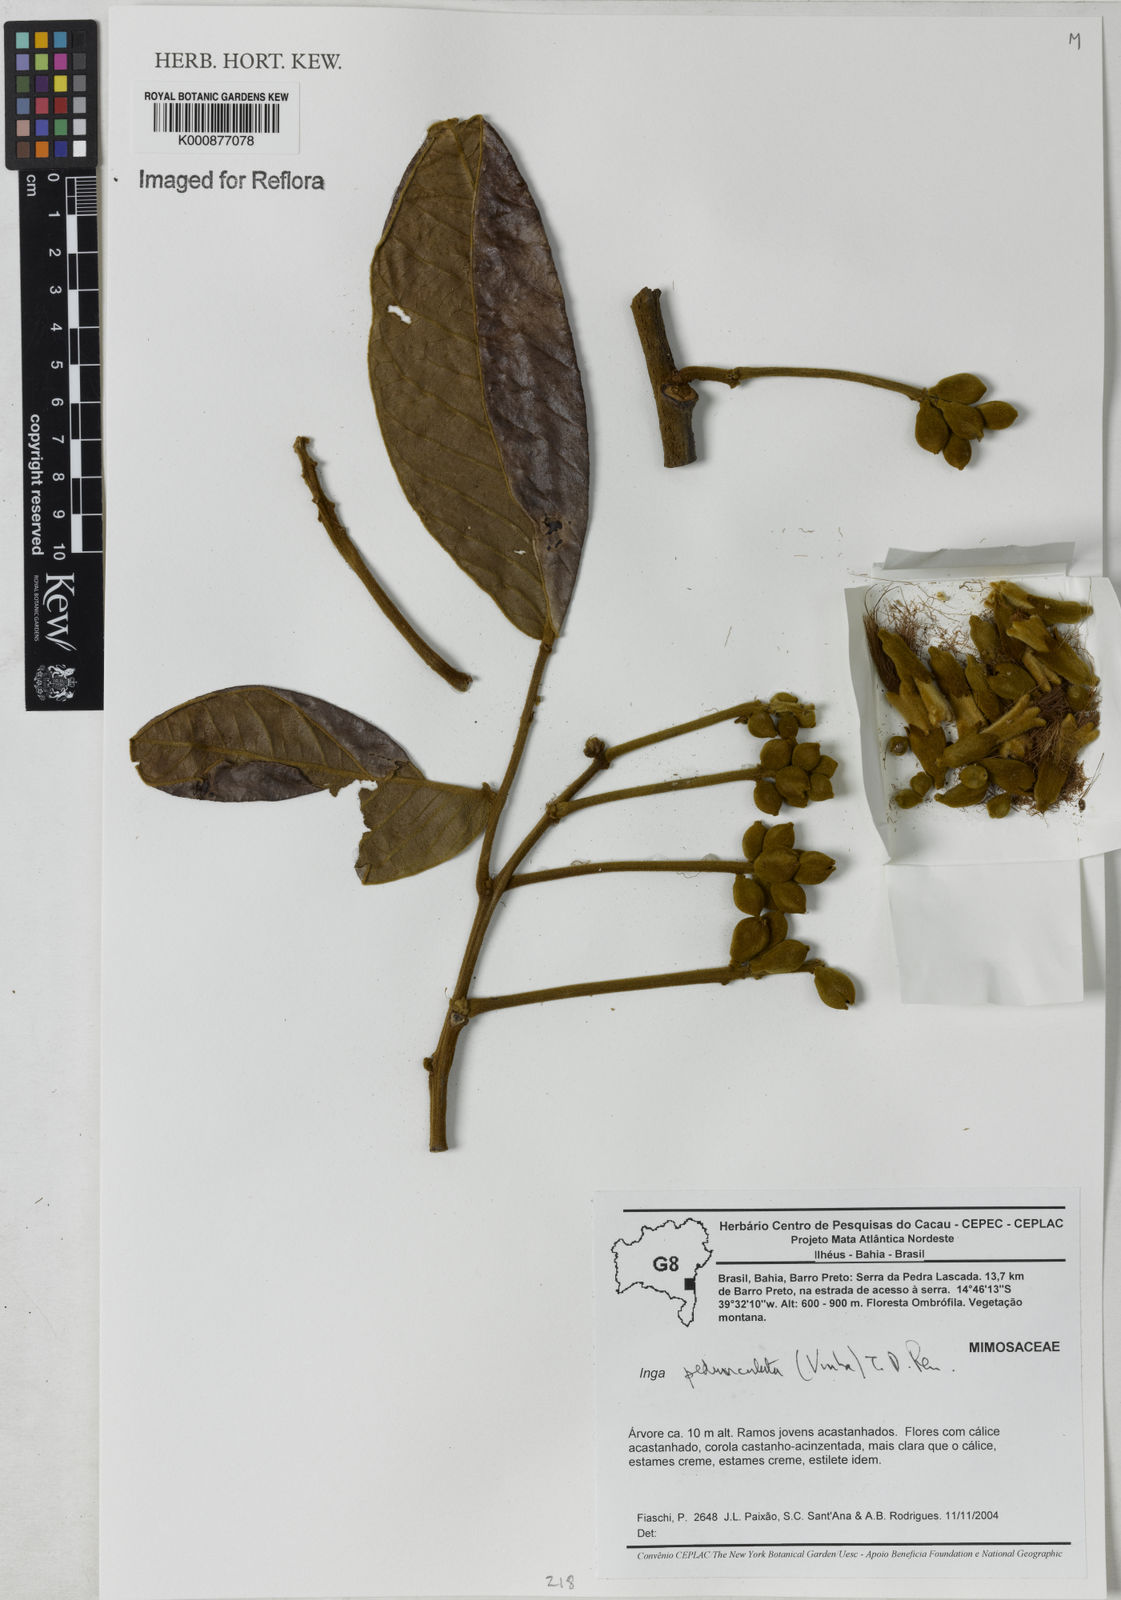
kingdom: Plantae
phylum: Tracheophyta
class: Magnoliopsida
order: Fabales
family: Fabaceae
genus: Inga
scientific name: Inga pedunculata
